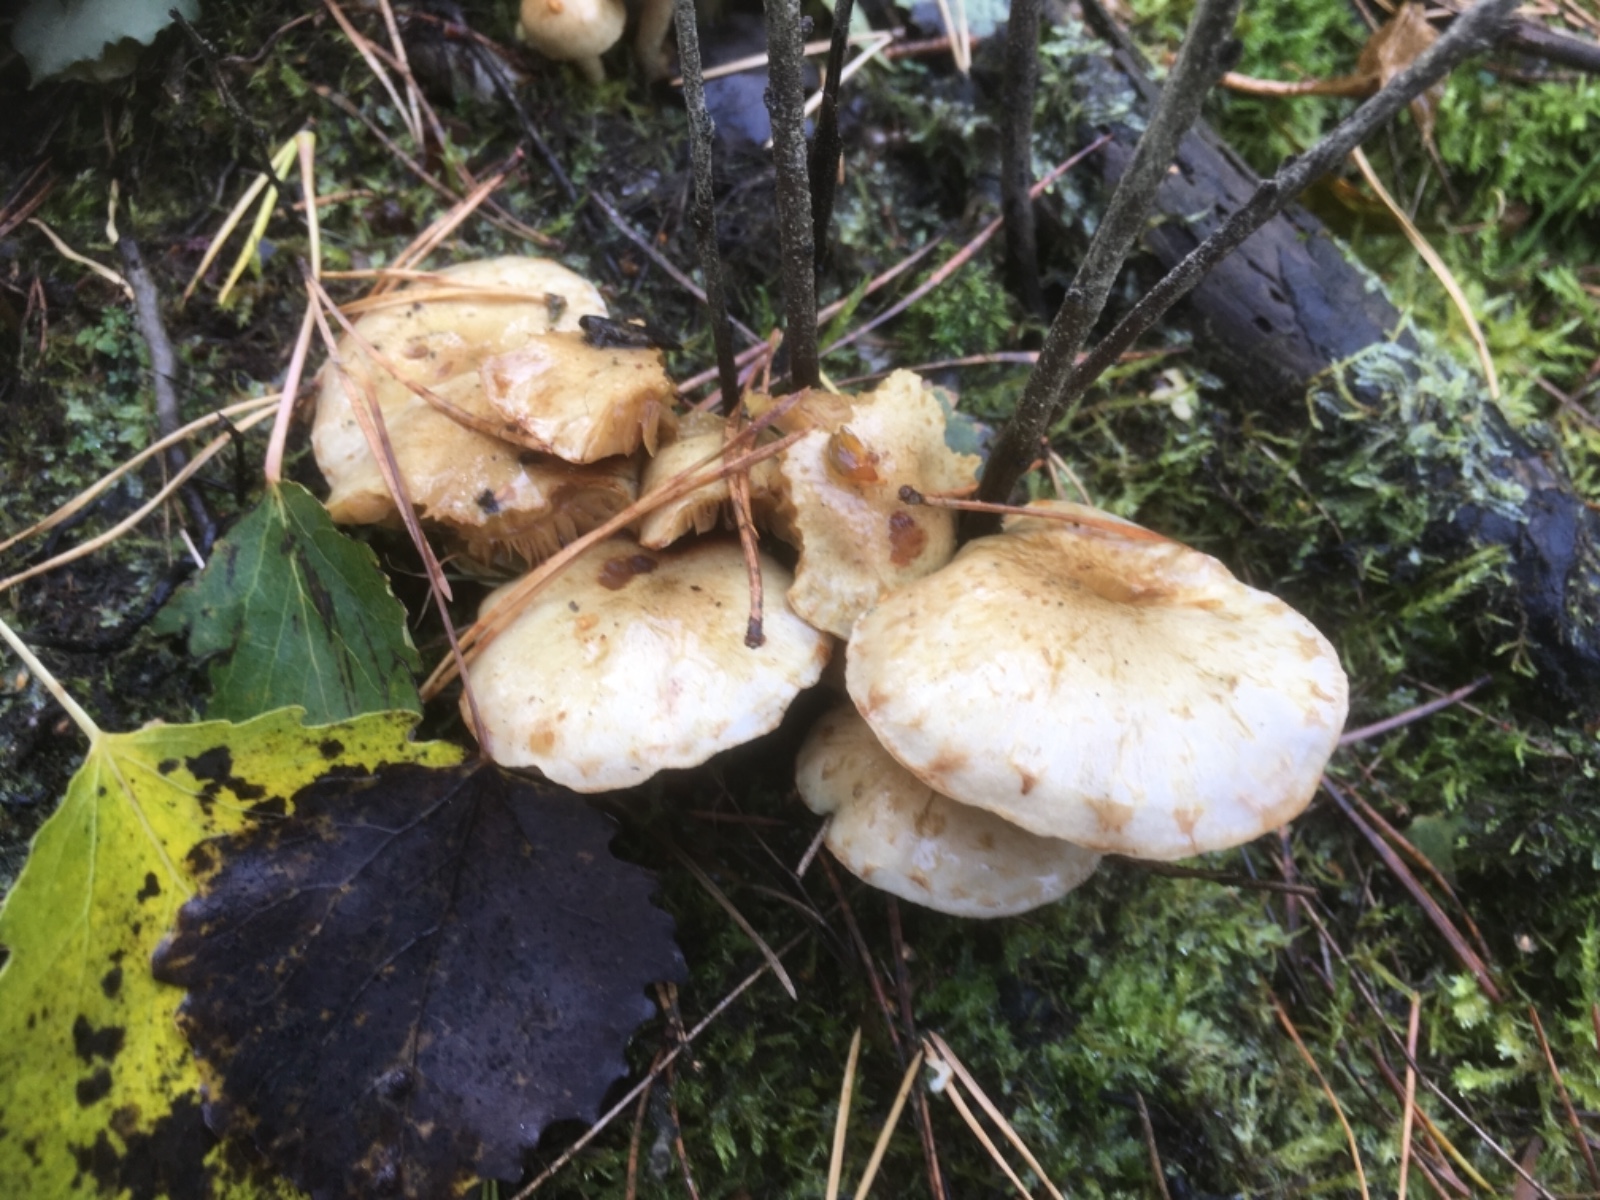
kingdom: Fungi
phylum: Basidiomycota
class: Agaricomycetes
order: Agaricales
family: Strophariaceae
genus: Pholiota
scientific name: Pholiota gummosa
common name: grøngul skælhat
